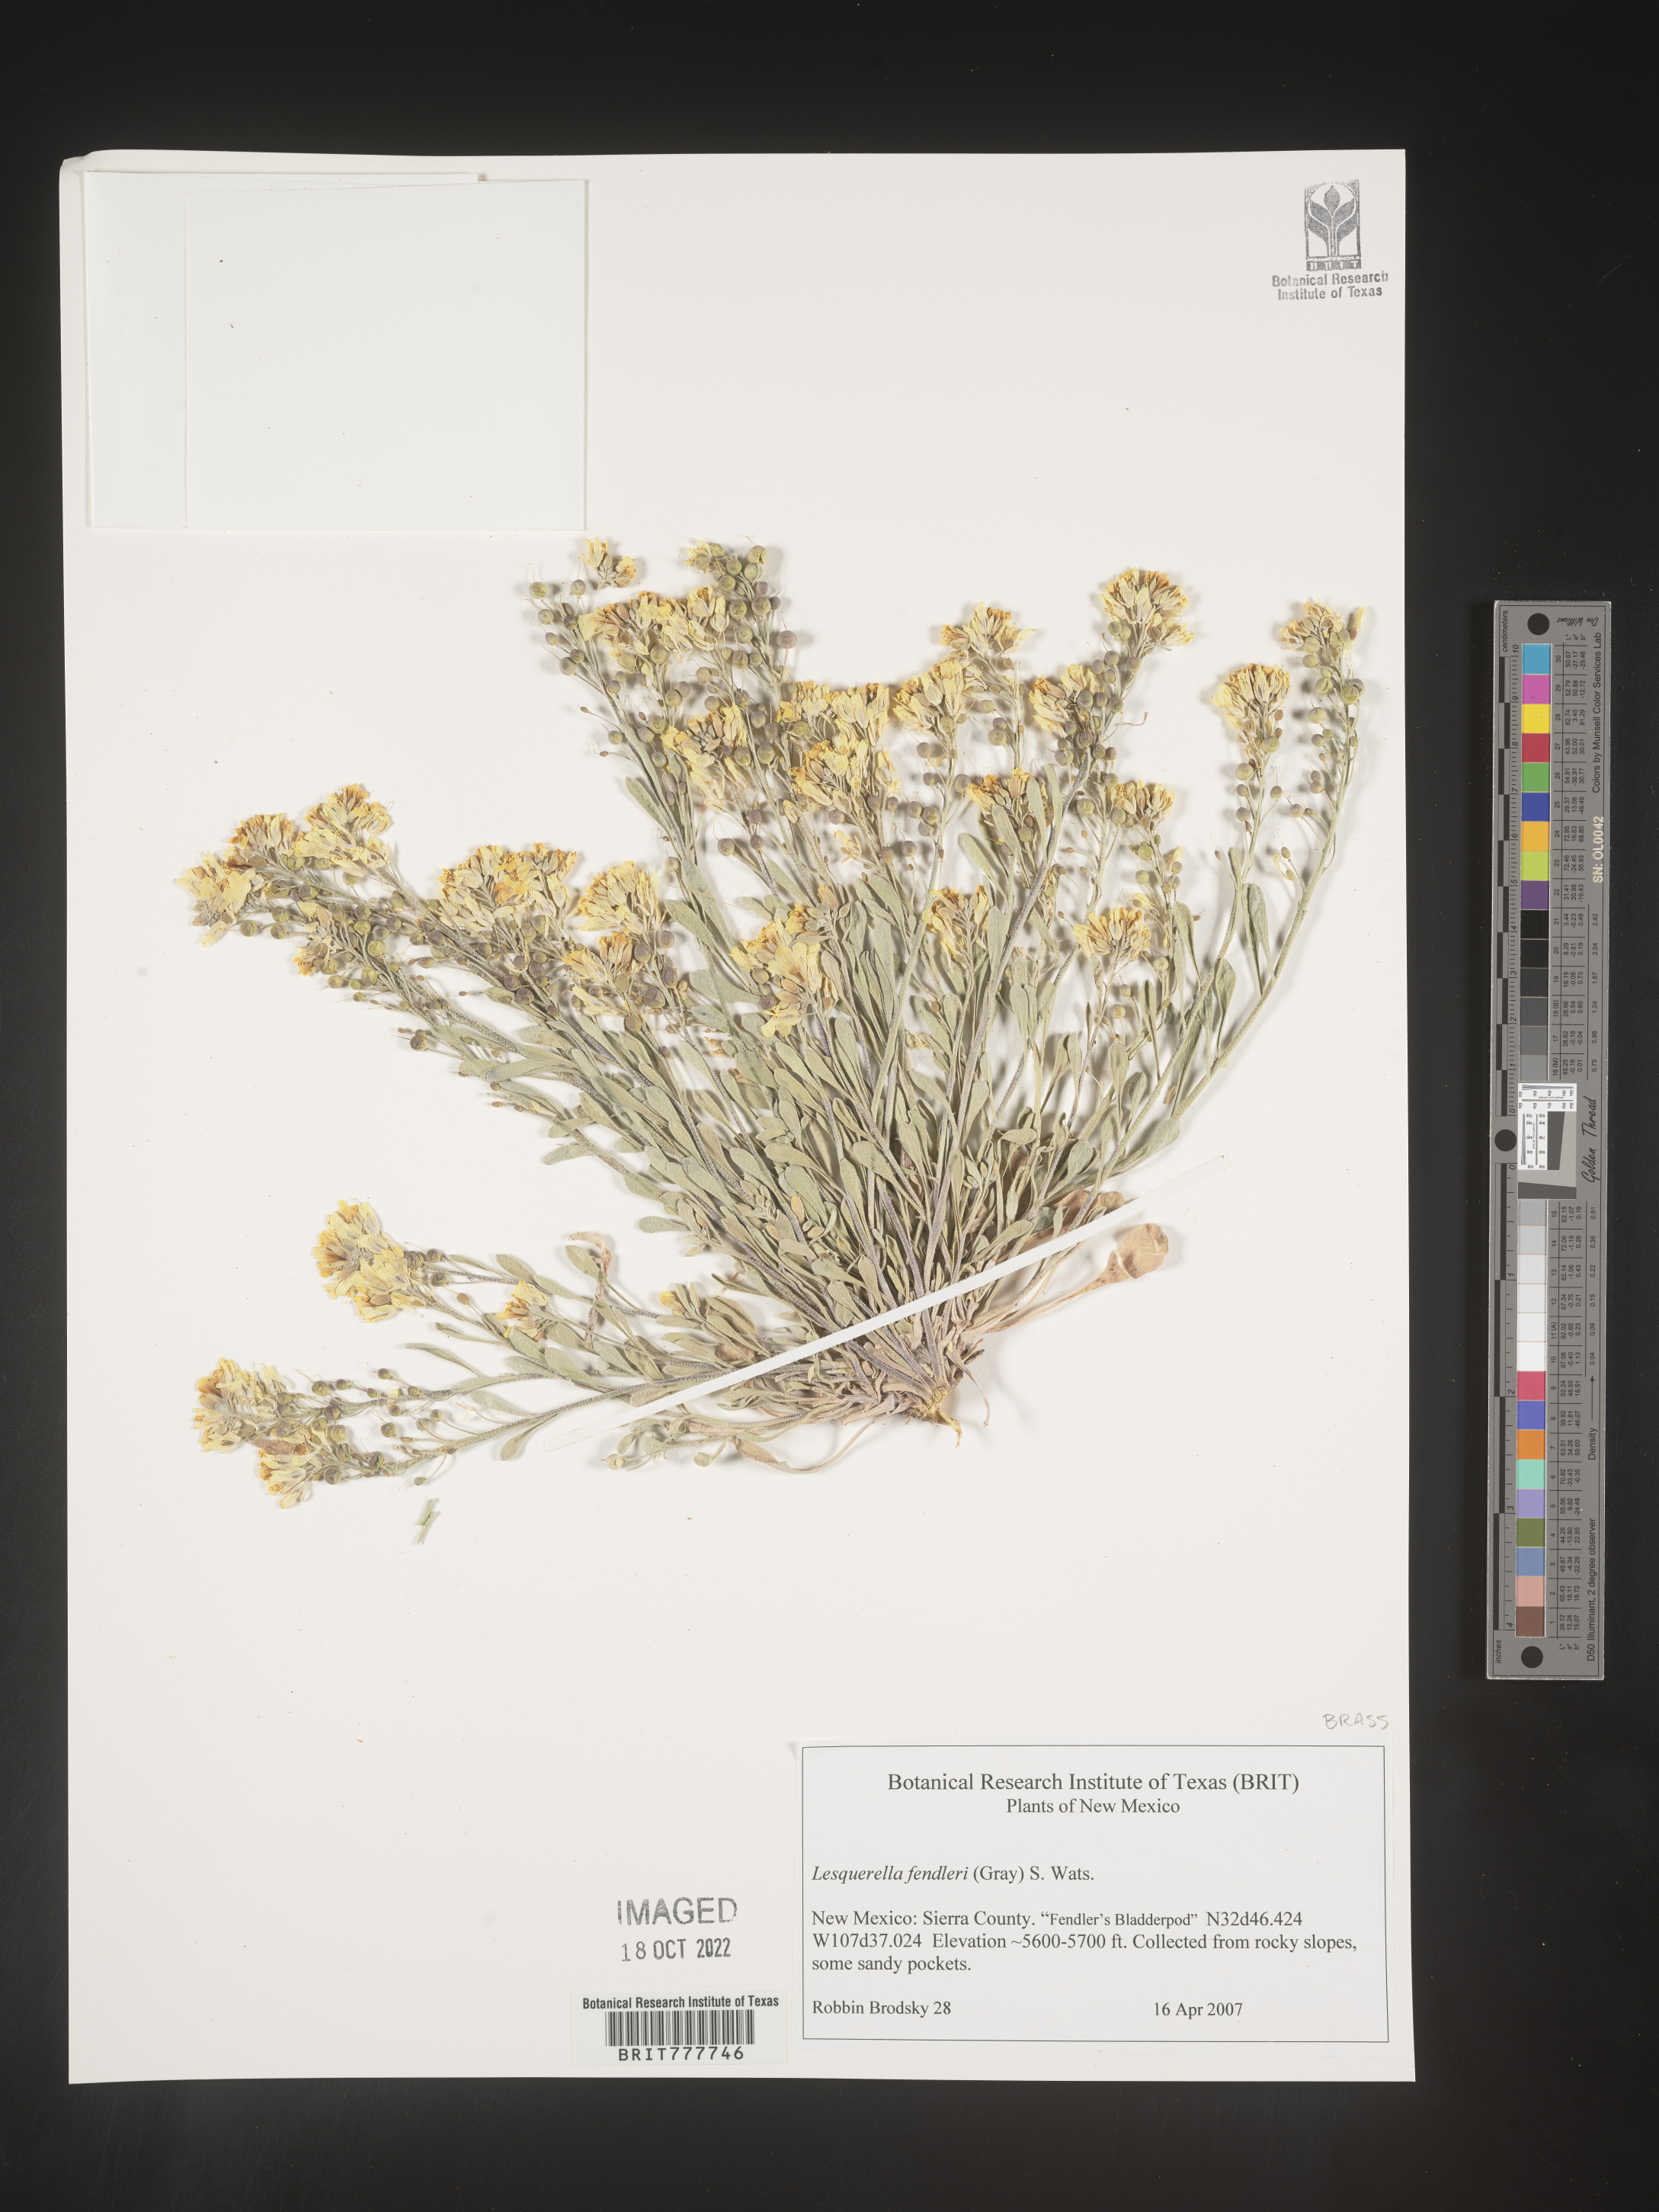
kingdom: Plantae
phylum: Tracheophyta
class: Magnoliopsida
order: Brassicales
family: Brassicaceae
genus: Physaria
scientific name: Physaria fendleri
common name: Fendler's bladderpod
